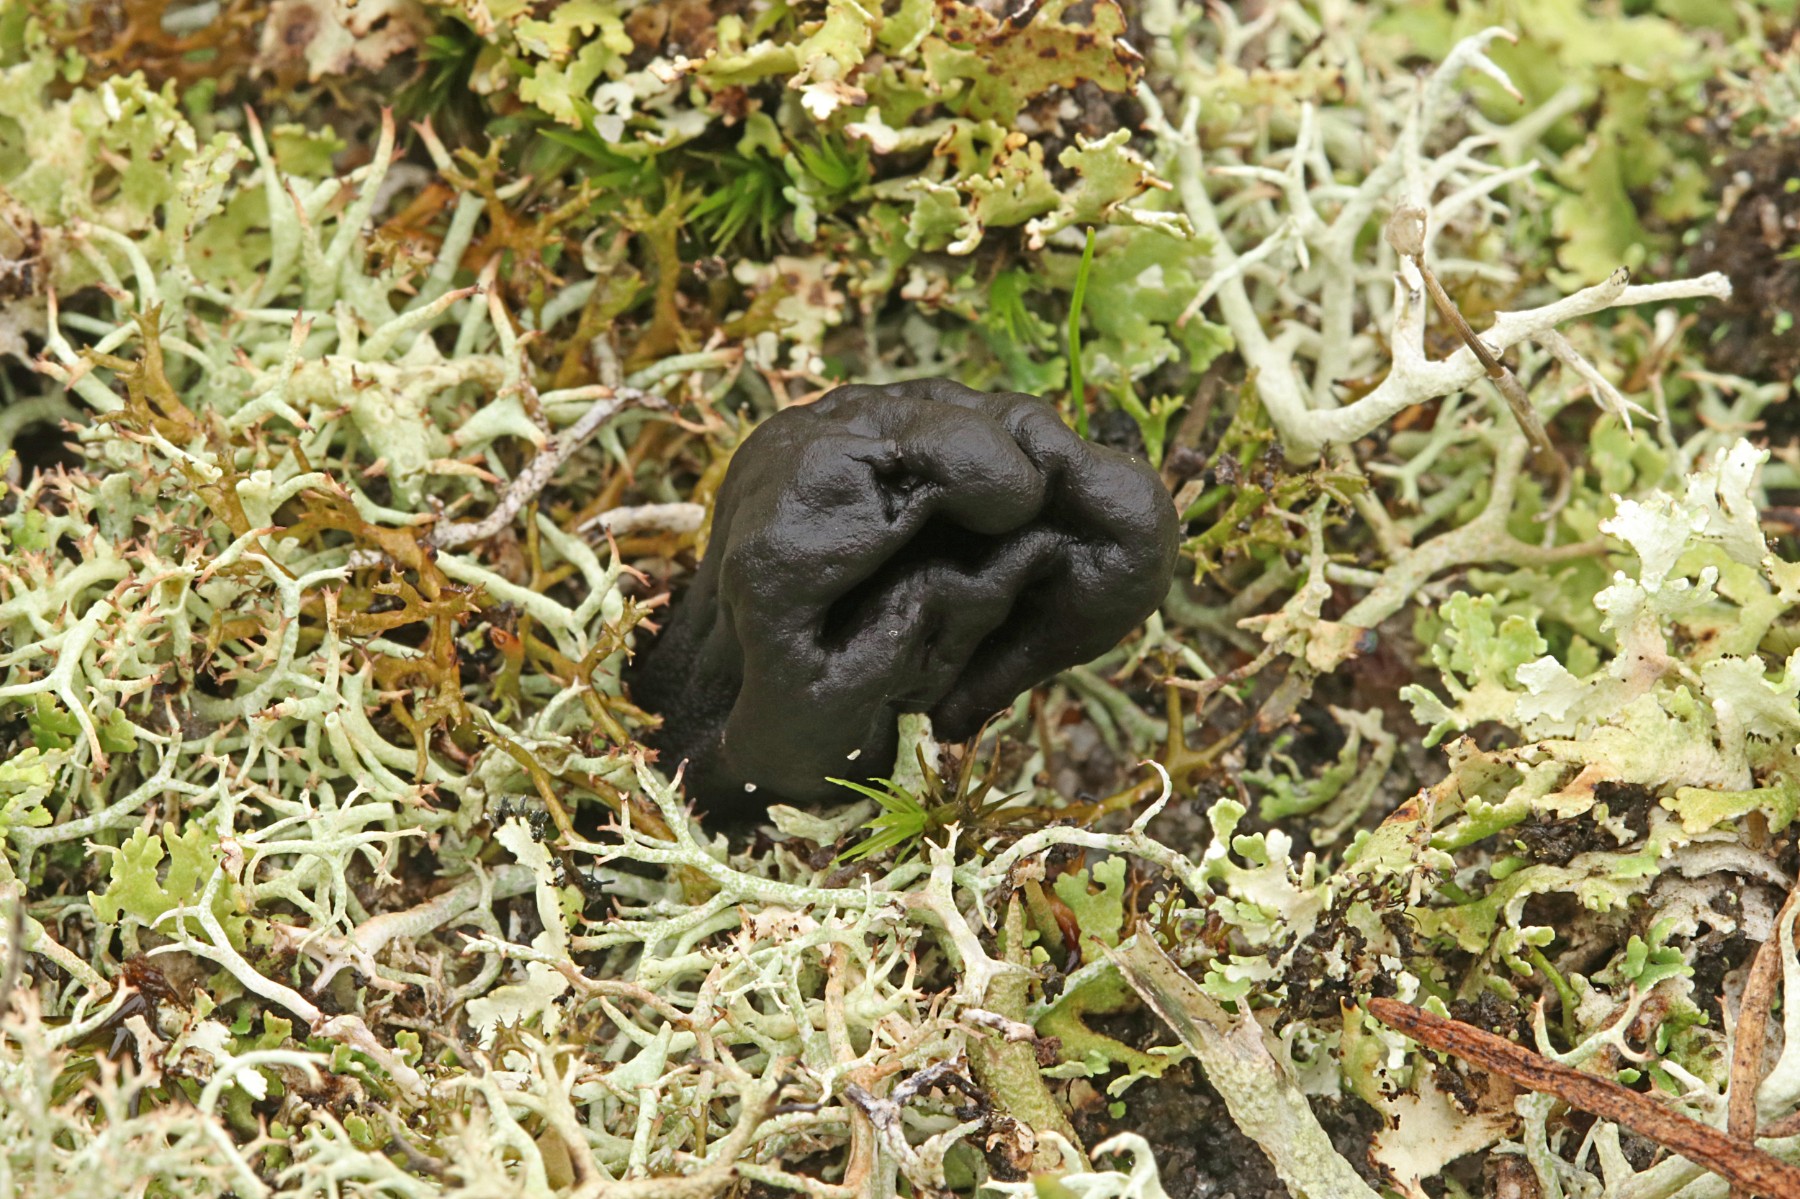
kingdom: Fungi
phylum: Ascomycota
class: Geoglossomycetes
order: Geoglossales
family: Geoglossaceae
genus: Sabuloglossum
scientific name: Sabuloglossum arenarium
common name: klit-jordtunge
